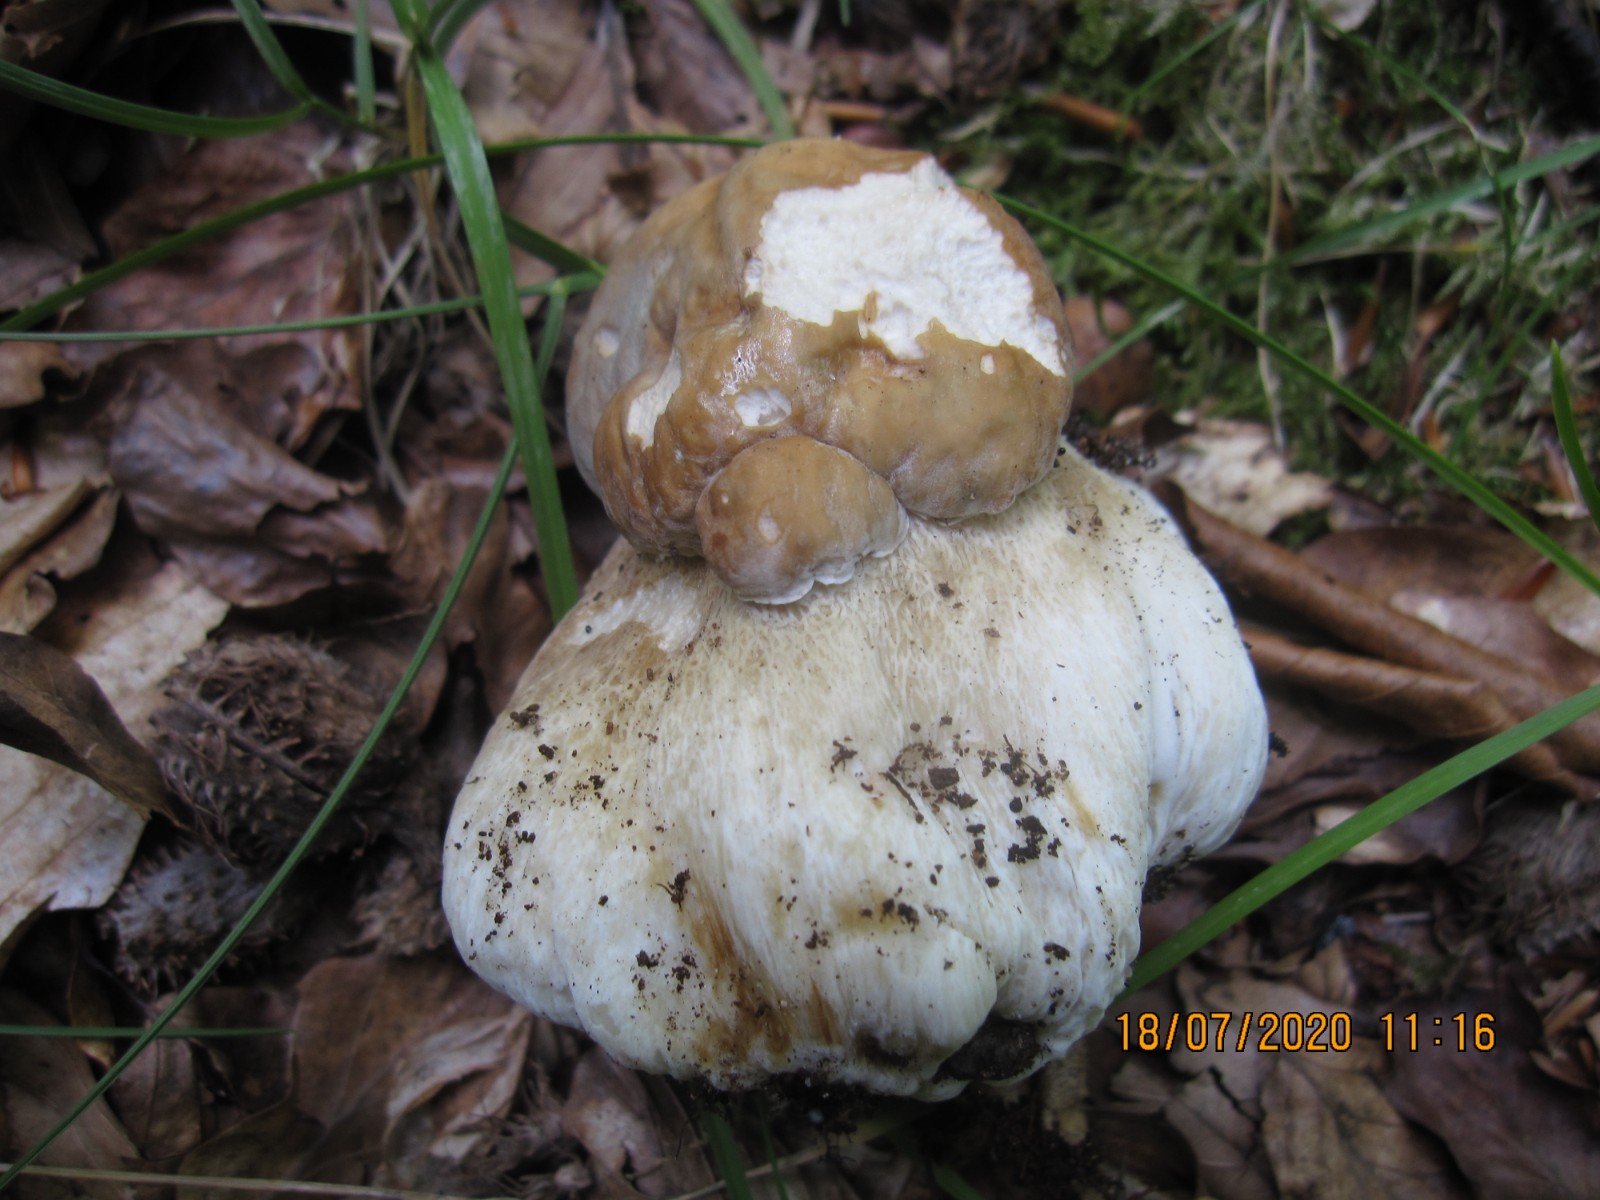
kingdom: Fungi
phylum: Basidiomycota
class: Agaricomycetes
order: Boletales
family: Boletaceae
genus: Boletus
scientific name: Boletus reticulatus
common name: sommer-rørhat
